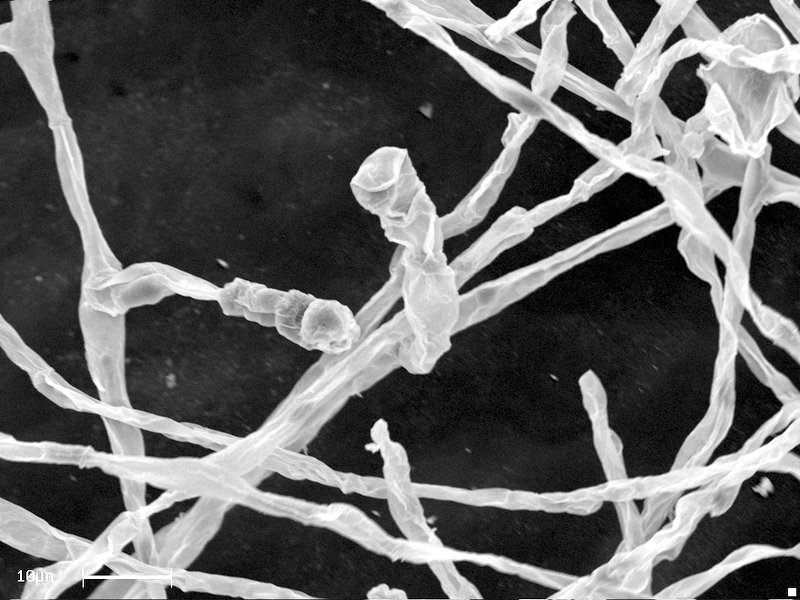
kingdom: Fungi
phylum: Ascomycota
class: Leotiomycetes
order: Helotiales
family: Erysiphaceae
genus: Erysiphe
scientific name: Erysiphe berberidis
